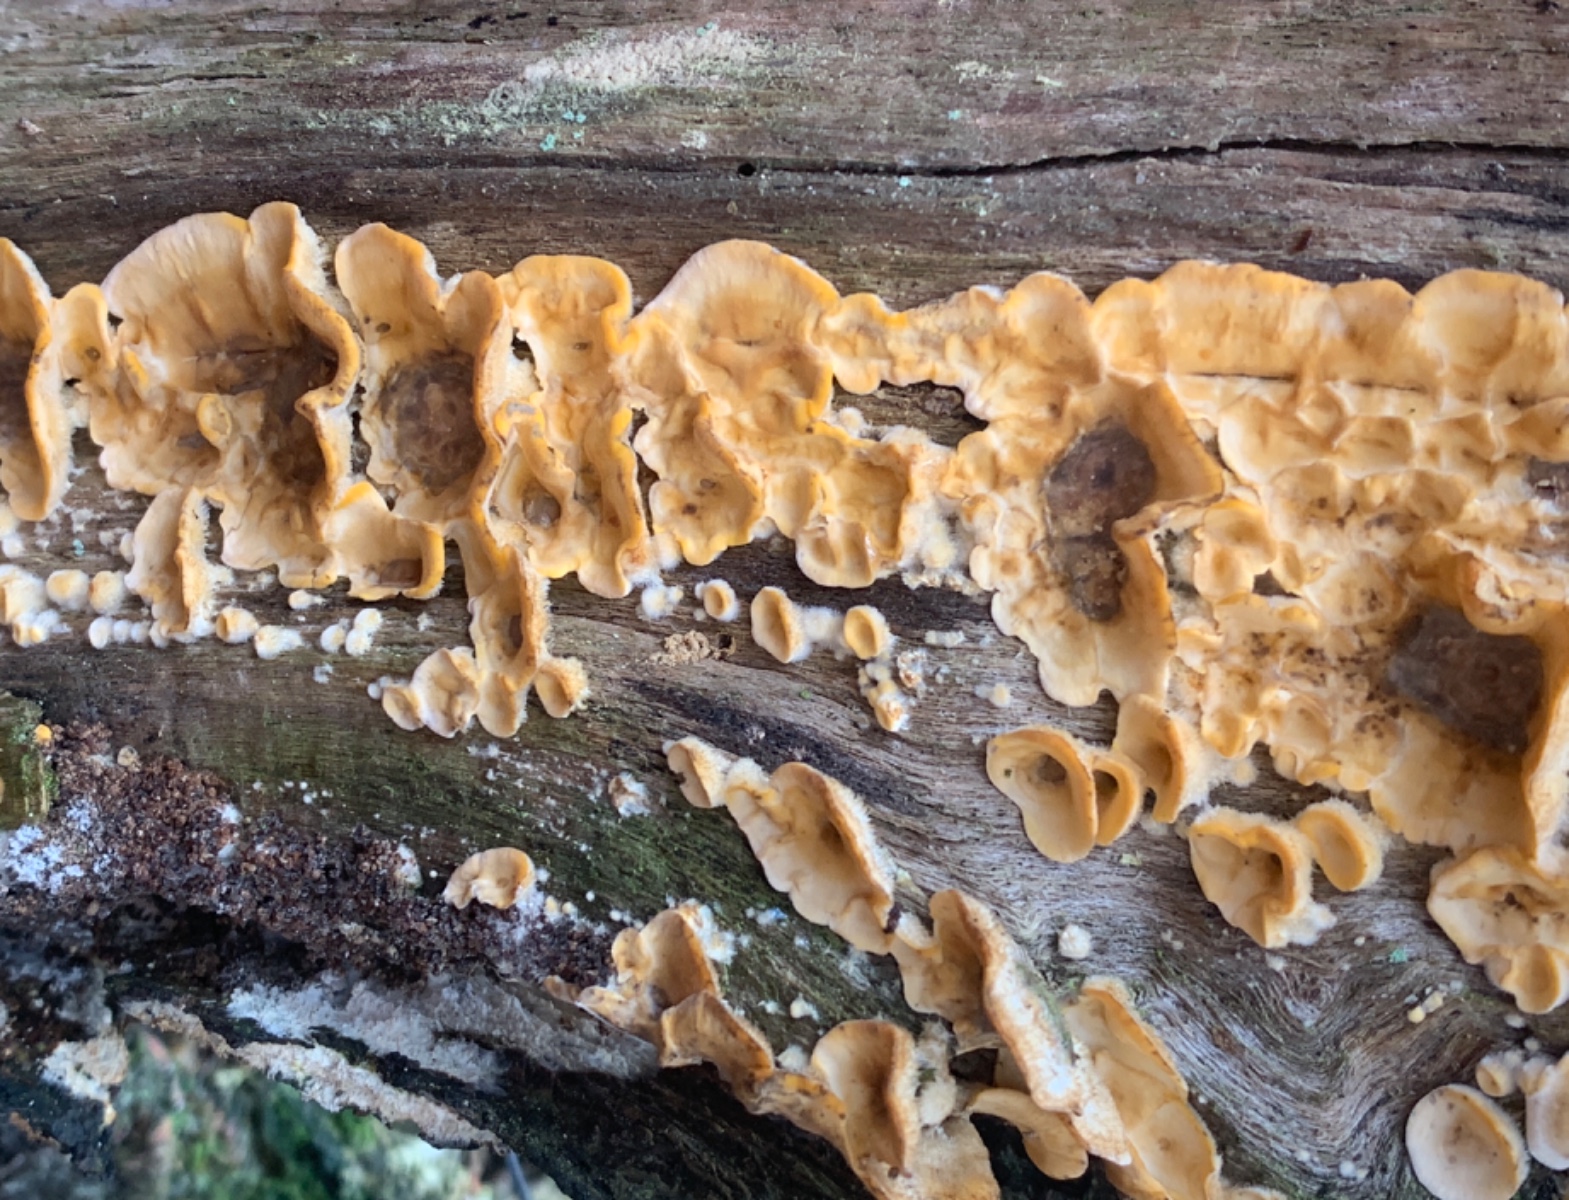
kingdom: Fungi
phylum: Basidiomycota
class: Agaricomycetes
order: Russulales
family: Stereaceae
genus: Stereum
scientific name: Stereum hirsutum
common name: håret lædersvamp
